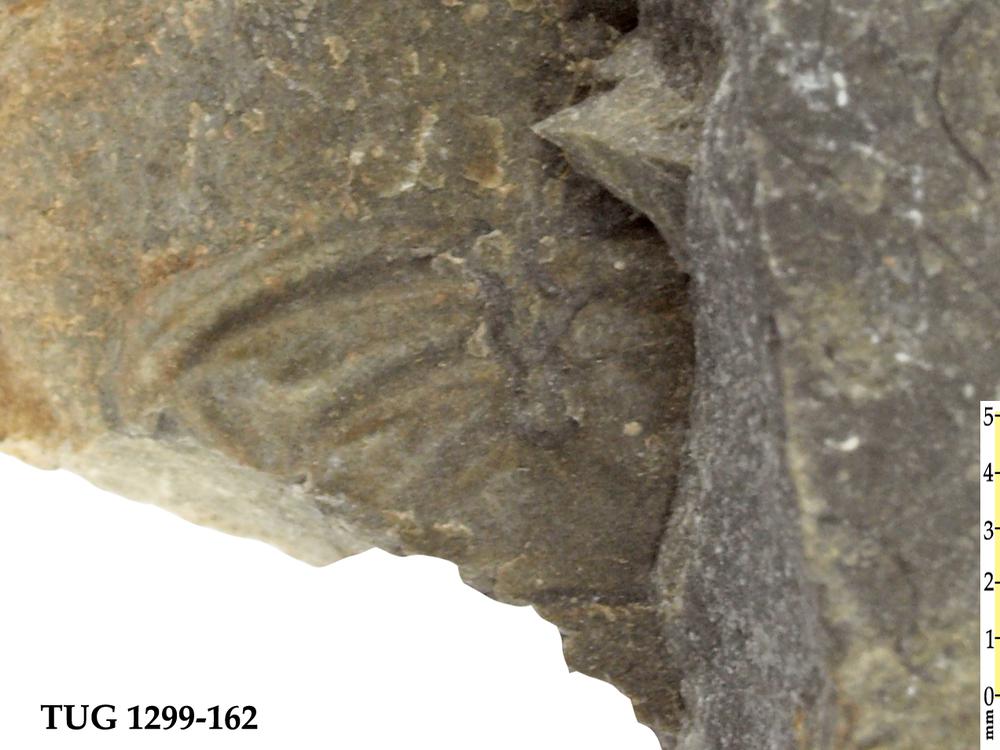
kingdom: Animalia
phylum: Arthropoda
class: Trilobita
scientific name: Trilobita
